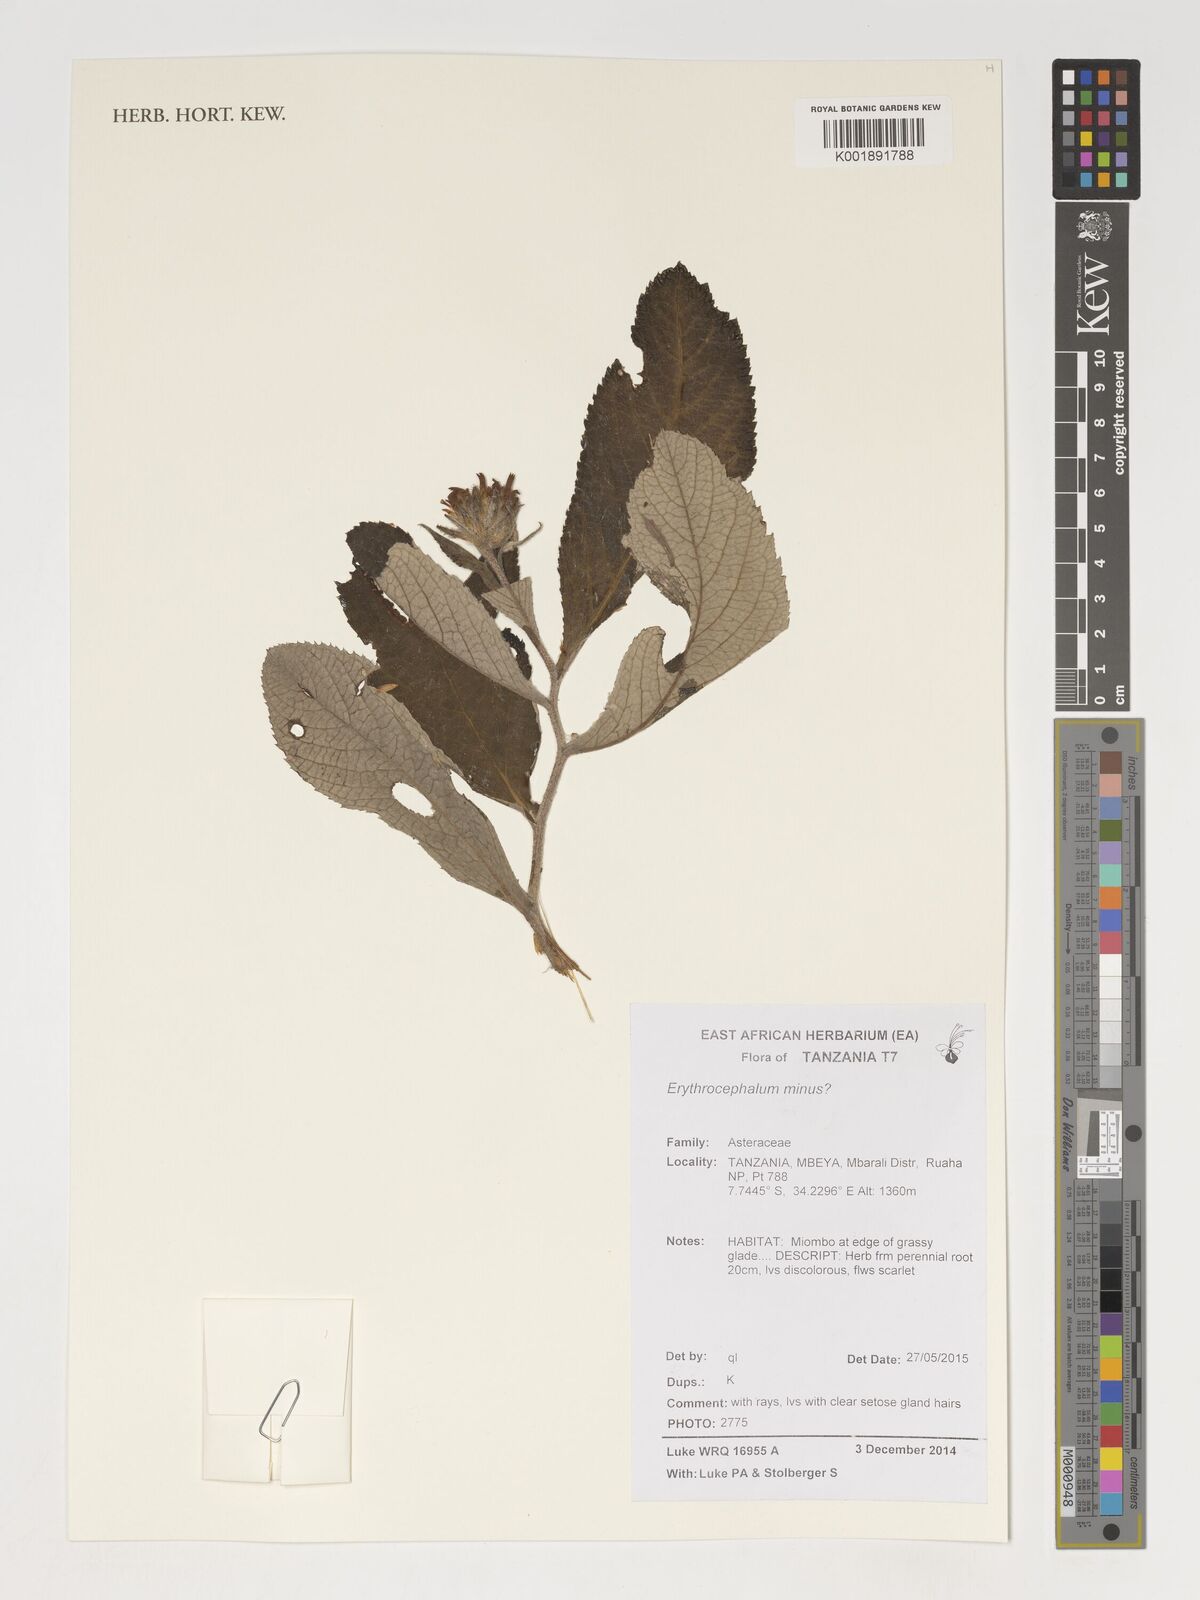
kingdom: Plantae
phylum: Tracheophyta
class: Magnoliopsida
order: Asterales
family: Asteraceae
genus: Erythrocephalum
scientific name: Erythrocephalum minus
